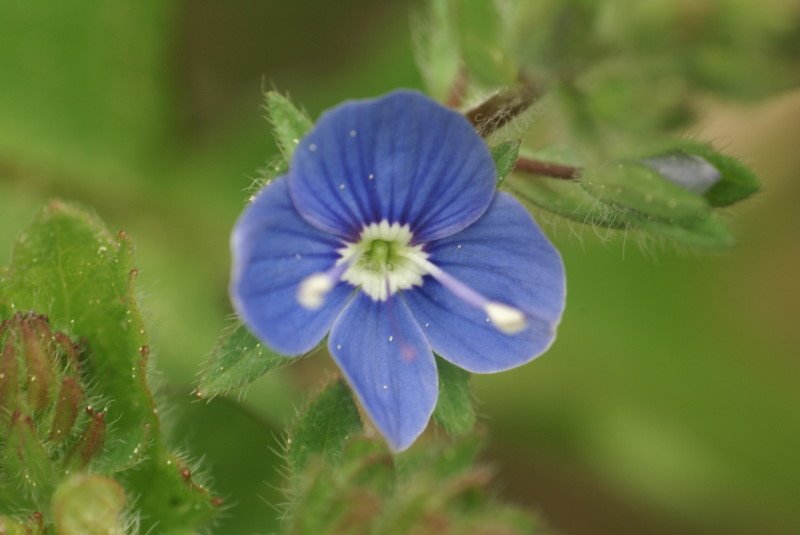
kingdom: Plantae
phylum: Tracheophyta
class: Magnoliopsida
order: Lamiales
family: Plantaginaceae
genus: Veronica
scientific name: Veronica chamaedrys
